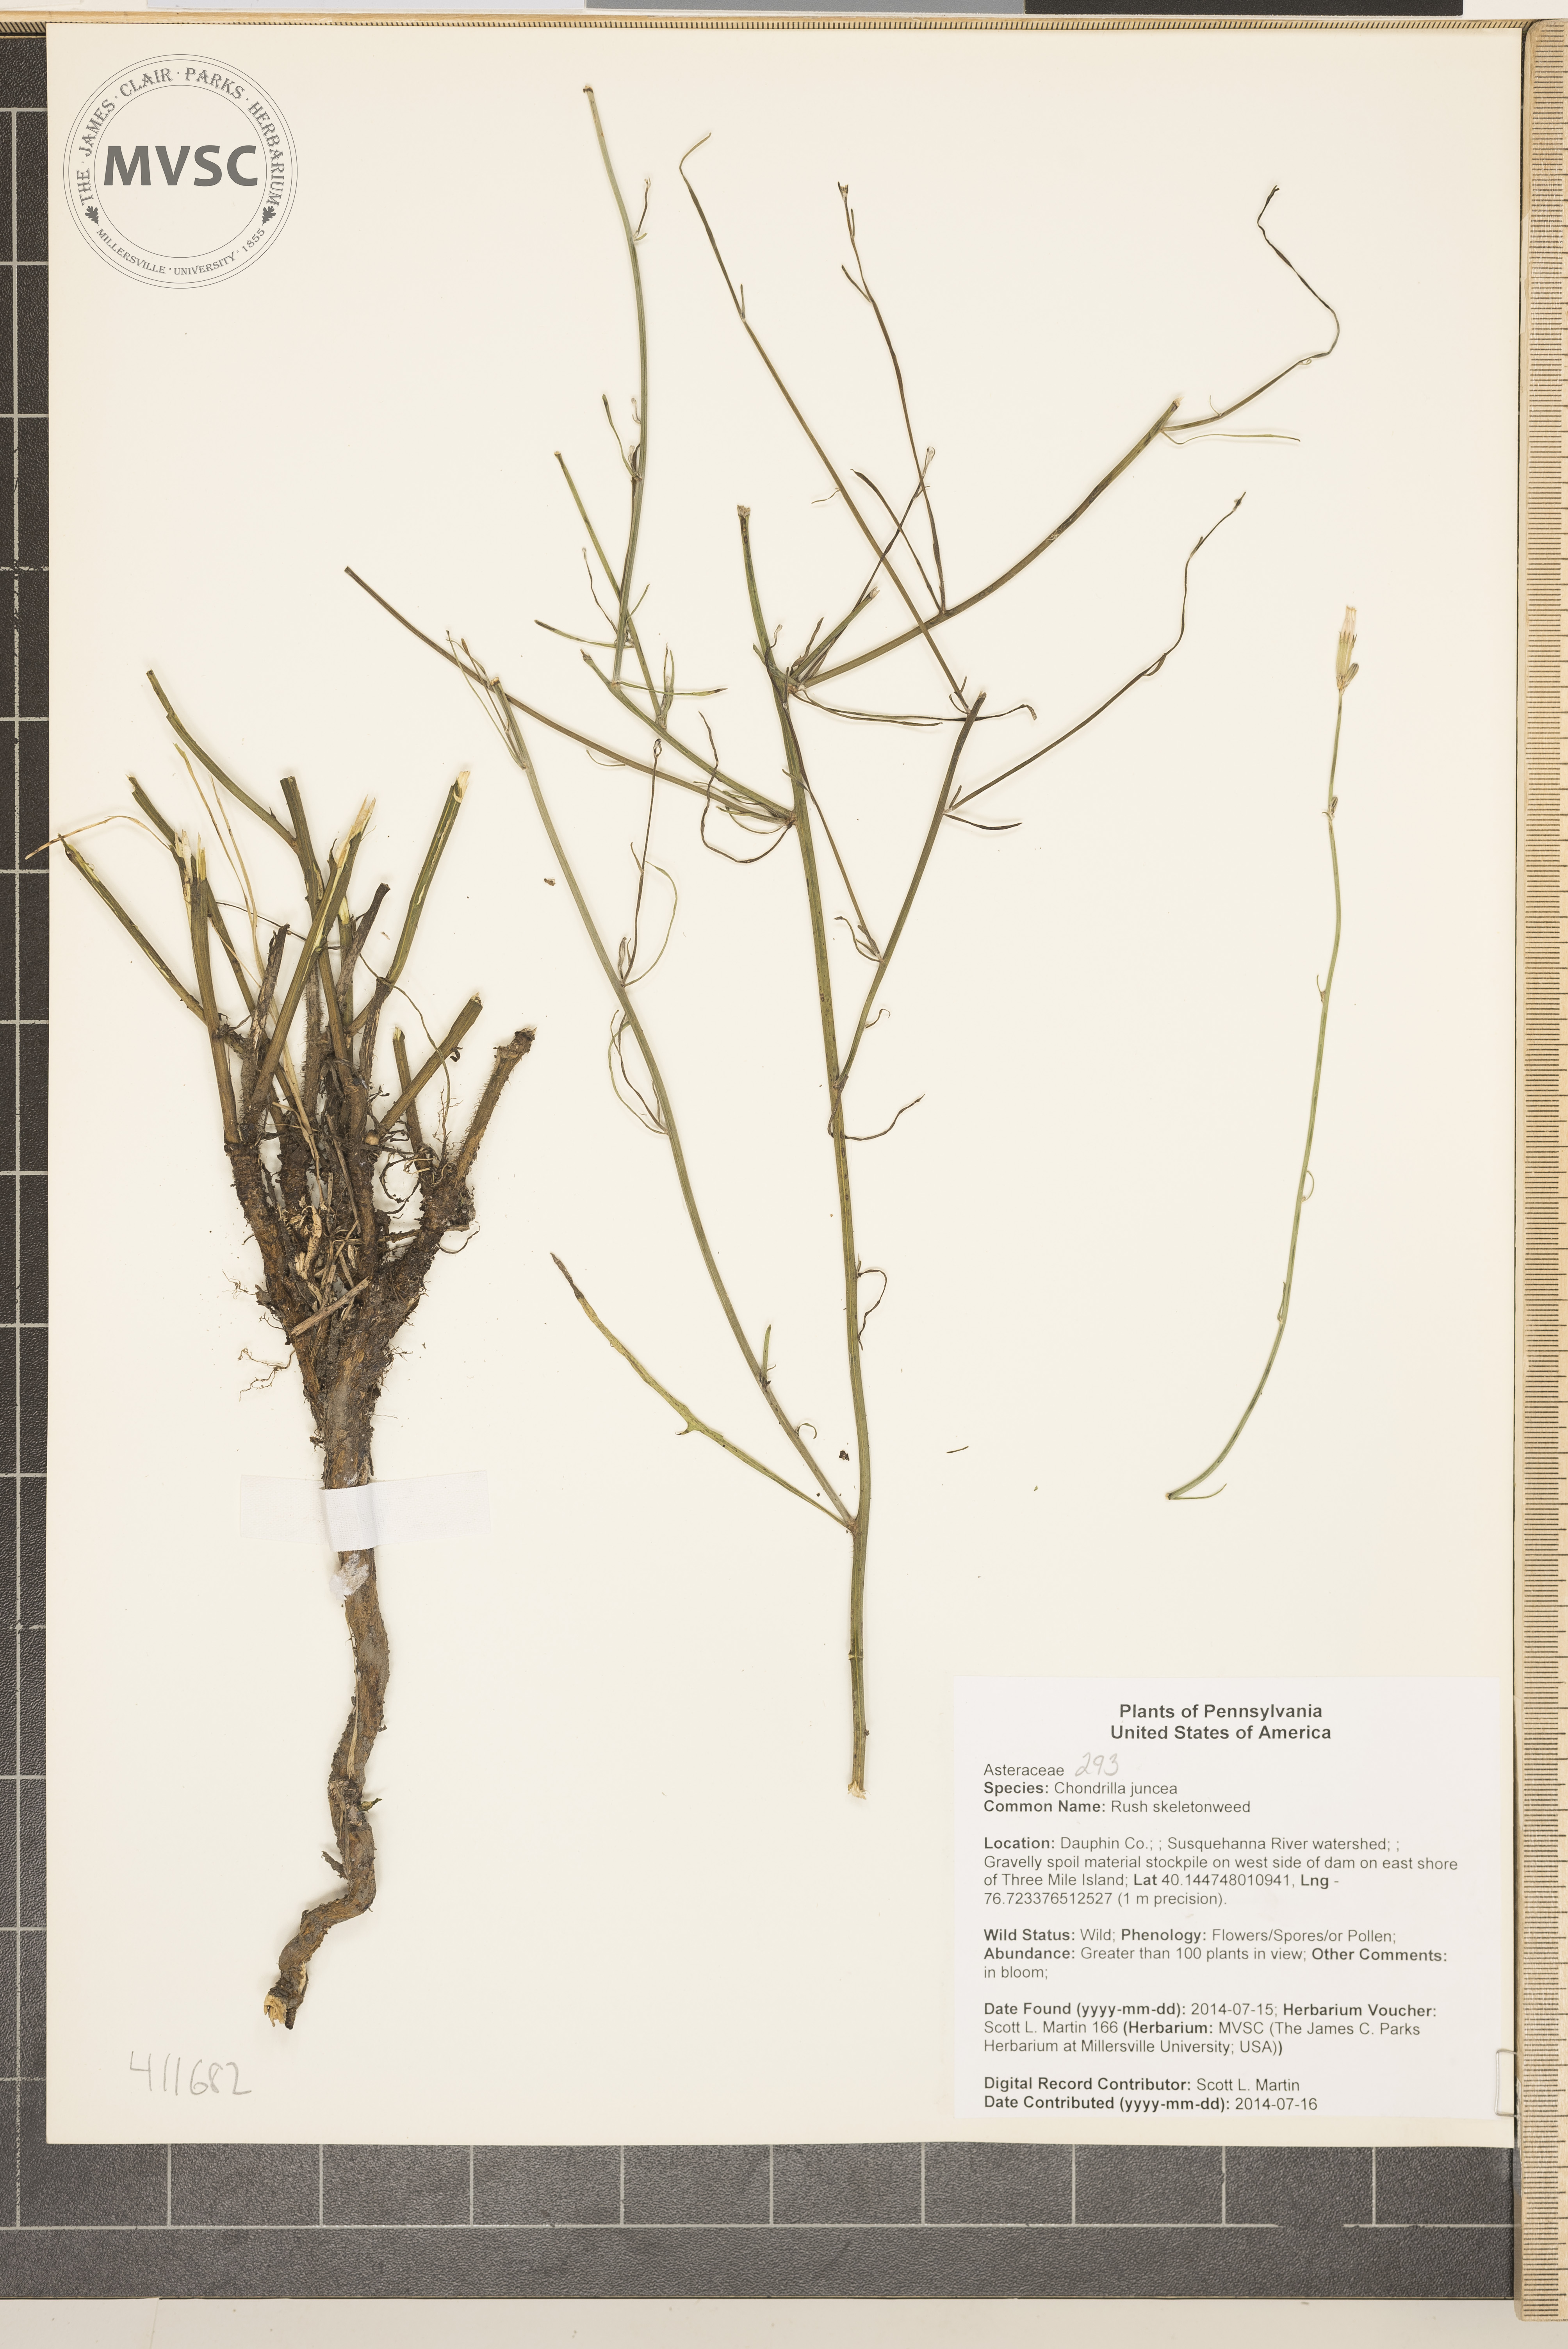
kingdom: Plantae
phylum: Tracheophyta
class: Magnoliopsida
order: Asterales
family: Asteraceae
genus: Chondrilla
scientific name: Chondrilla juncea
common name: Rush skeletonweed
